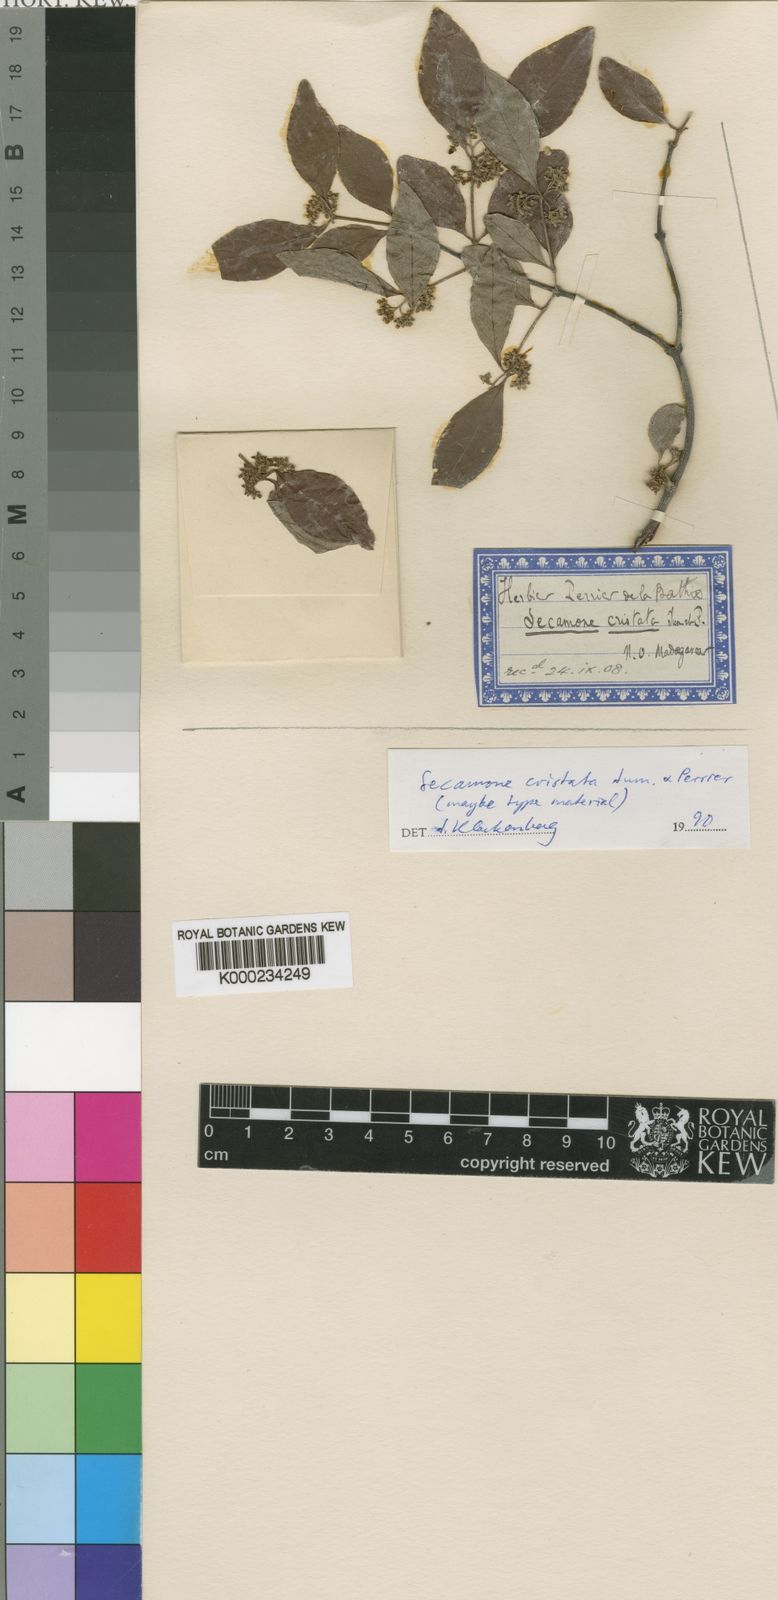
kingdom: Plantae
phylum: Tracheophyta
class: Magnoliopsida
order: Gentianales
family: Apocynaceae
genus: Secamone
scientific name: Secamone cristata
